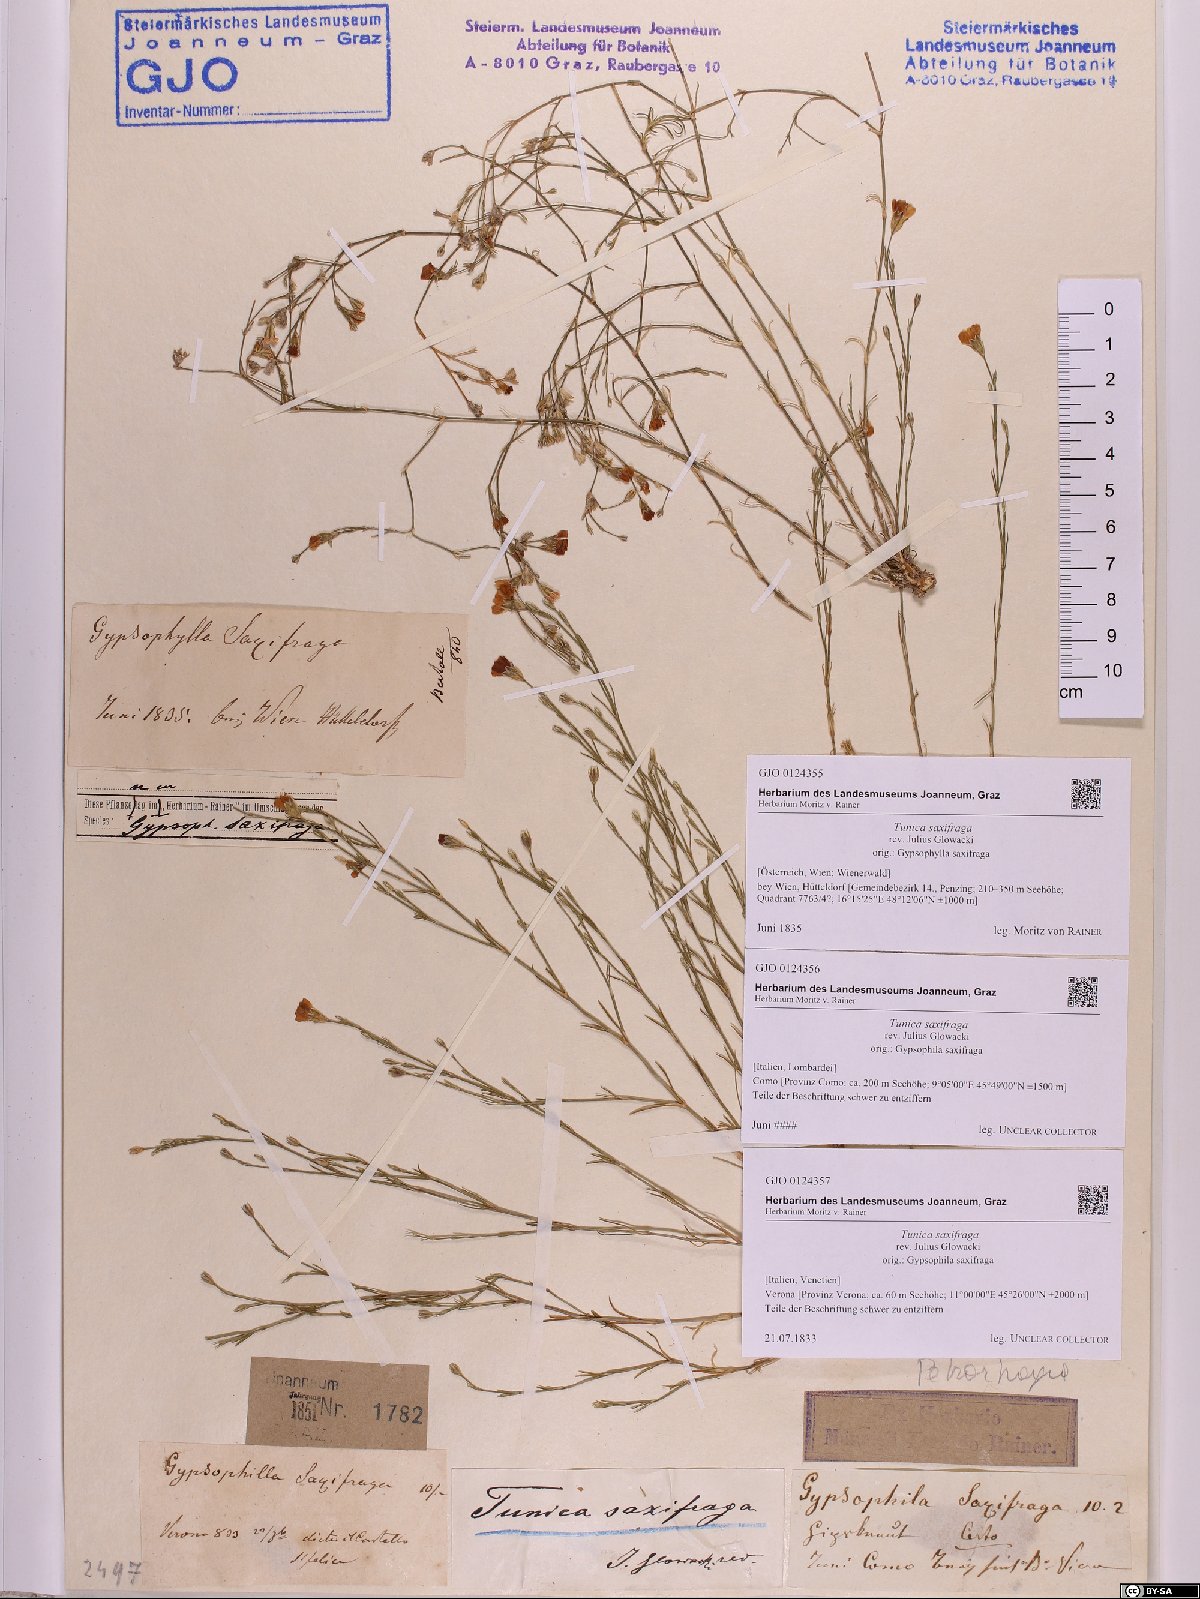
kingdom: Plantae
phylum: Tracheophyta
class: Magnoliopsida
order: Caryophyllales
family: Caryophyllaceae
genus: Petrorhagia
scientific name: Petrorhagia saxifraga
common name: Tunicflower
